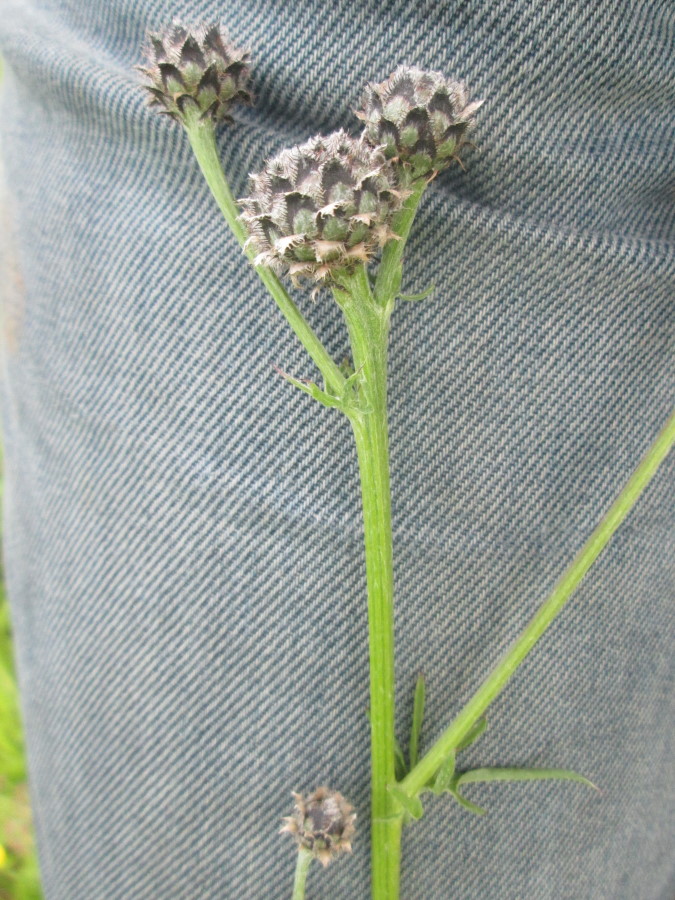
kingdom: Plantae
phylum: Tracheophyta
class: Magnoliopsida
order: Asterales
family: Asteraceae
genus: Centaurea
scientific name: Centaurea scabiosa
